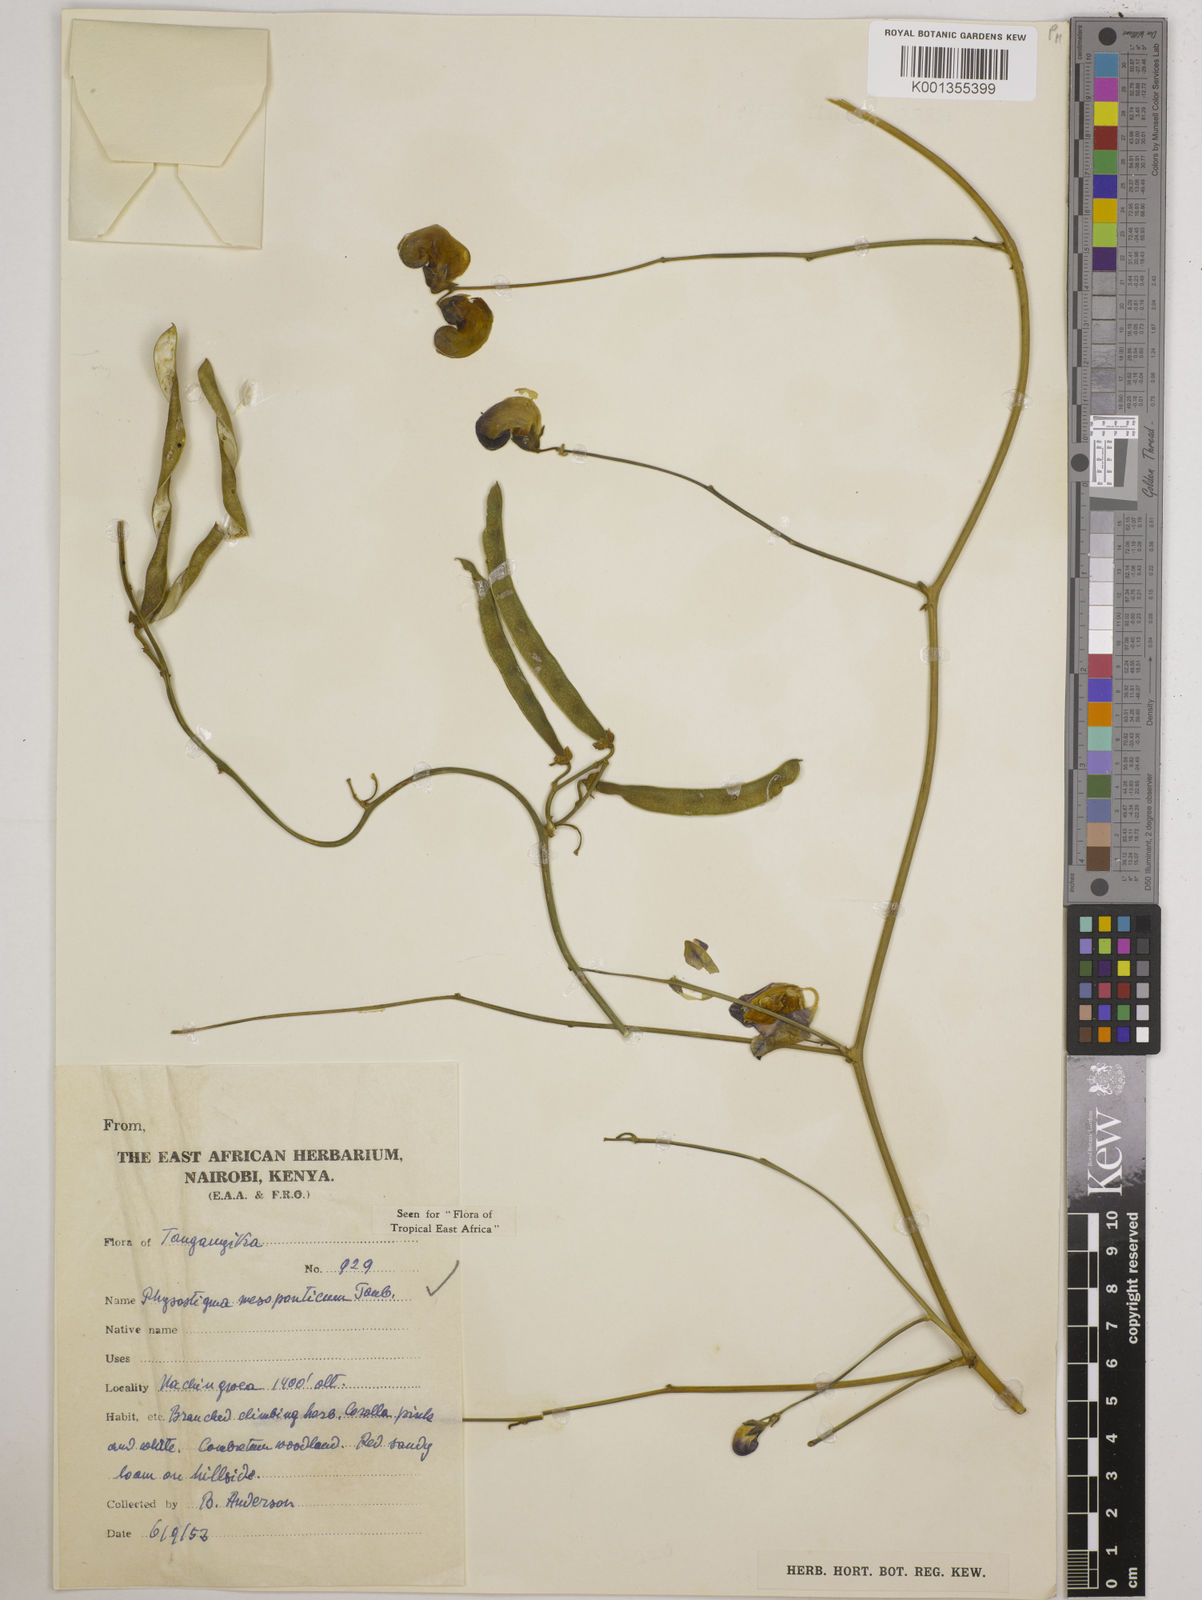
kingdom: Plantae
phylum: Tracheophyta
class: Magnoliopsida
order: Fabales
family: Fabaceae
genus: Physostigma
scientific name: Physostigma mesoponticum
